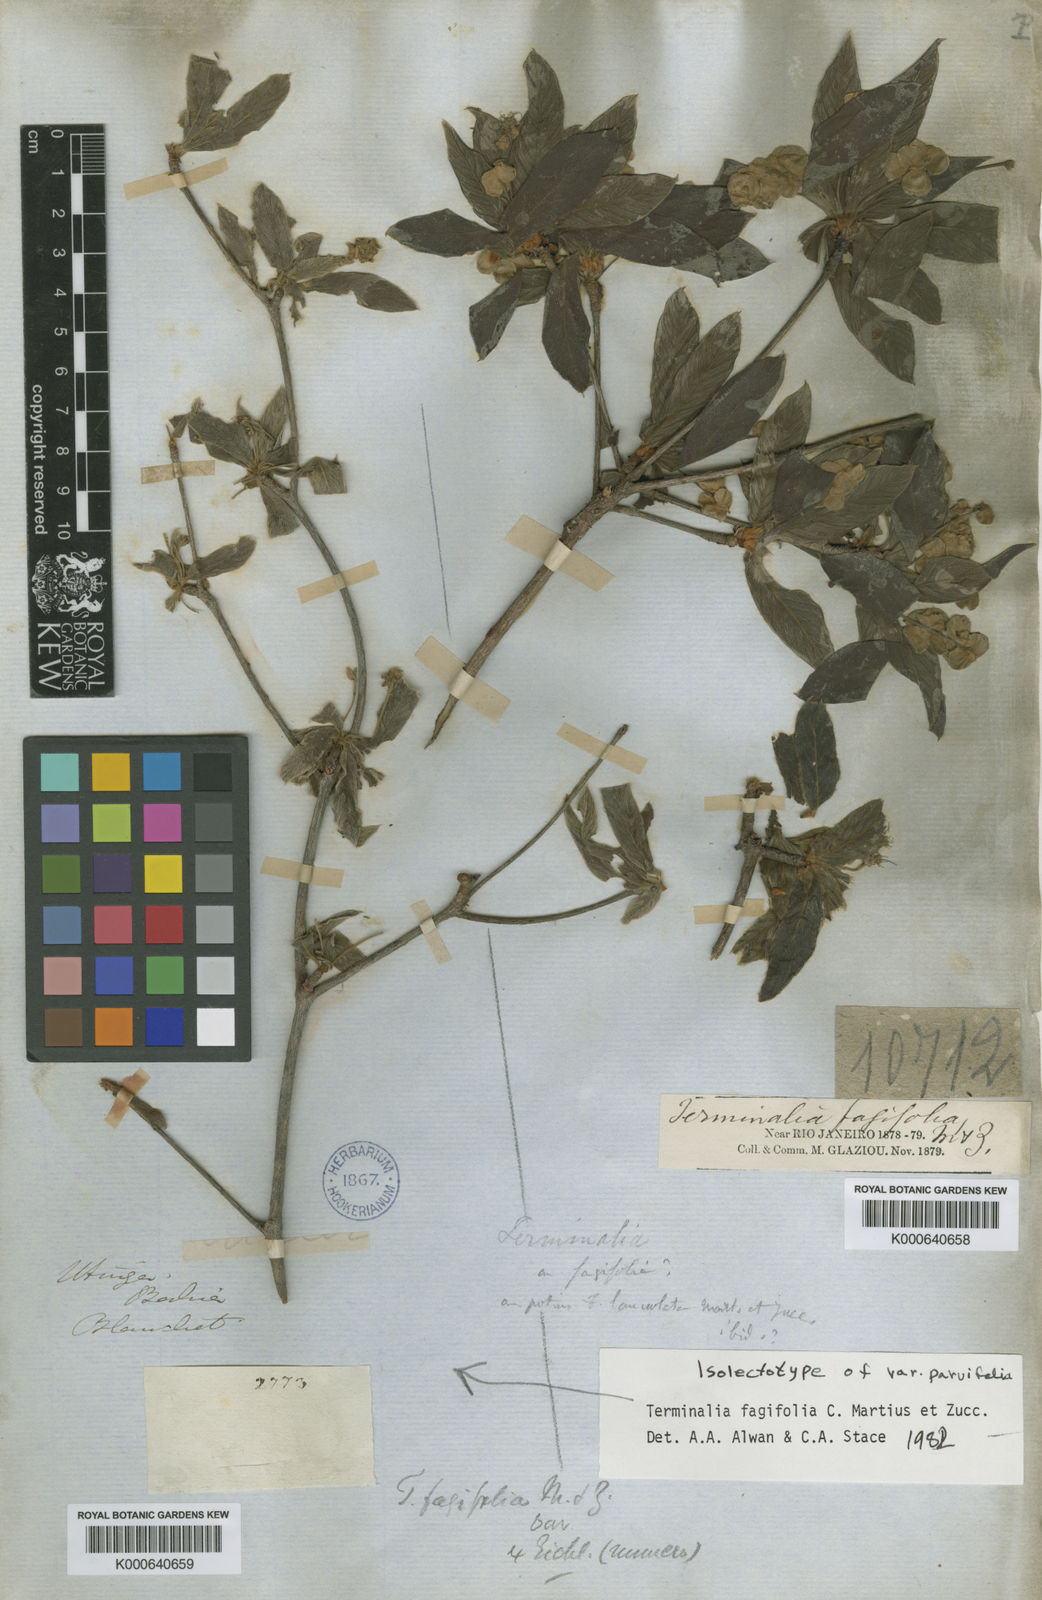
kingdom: Plantae
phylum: Tracheophyta
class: Magnoliopsida
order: Myrtales
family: Combretaceae
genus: Terminalia
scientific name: Terminalia fagifolia
